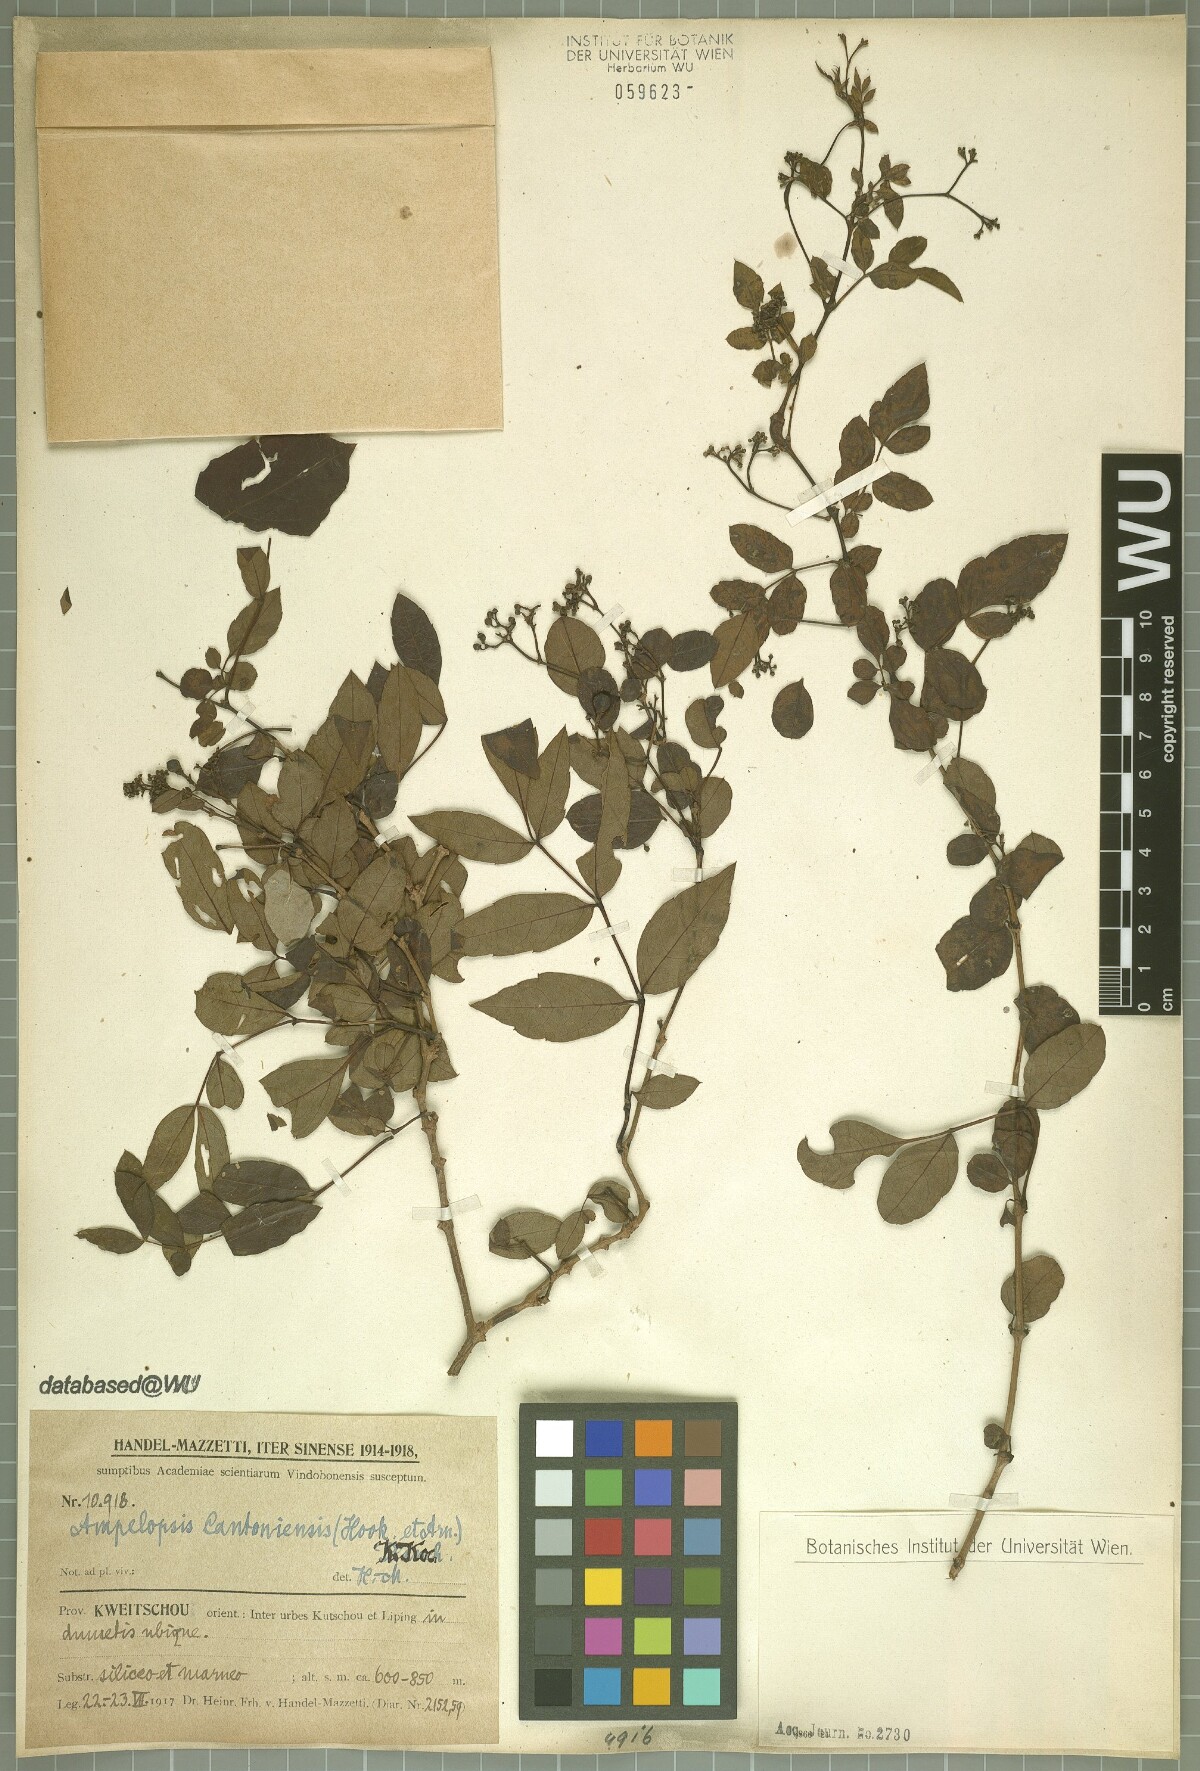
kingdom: Plantae
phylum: Tracheophyta
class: Magnoliopsida
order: Vitales
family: Vitaceae
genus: Nekemias
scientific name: Nekemias cantoniensis
